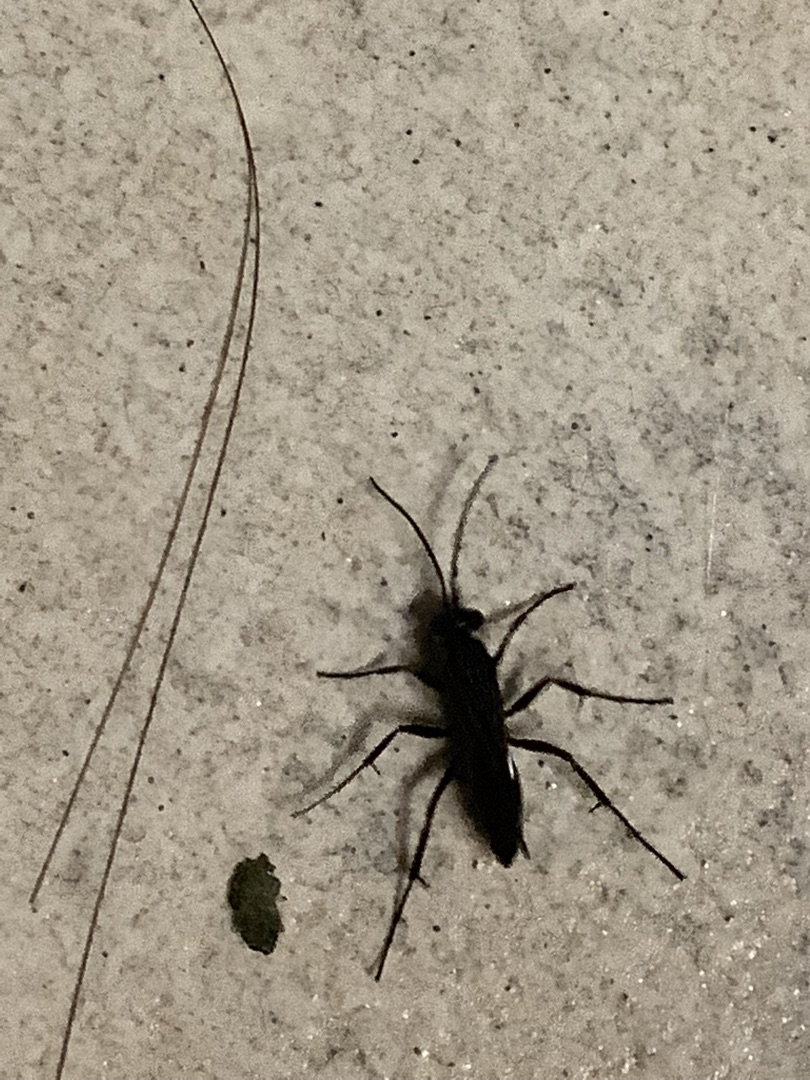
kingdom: Animalia
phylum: Arthropoda
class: Insecta
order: Hymenoptera
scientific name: Hymenoptera
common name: Årevinger
